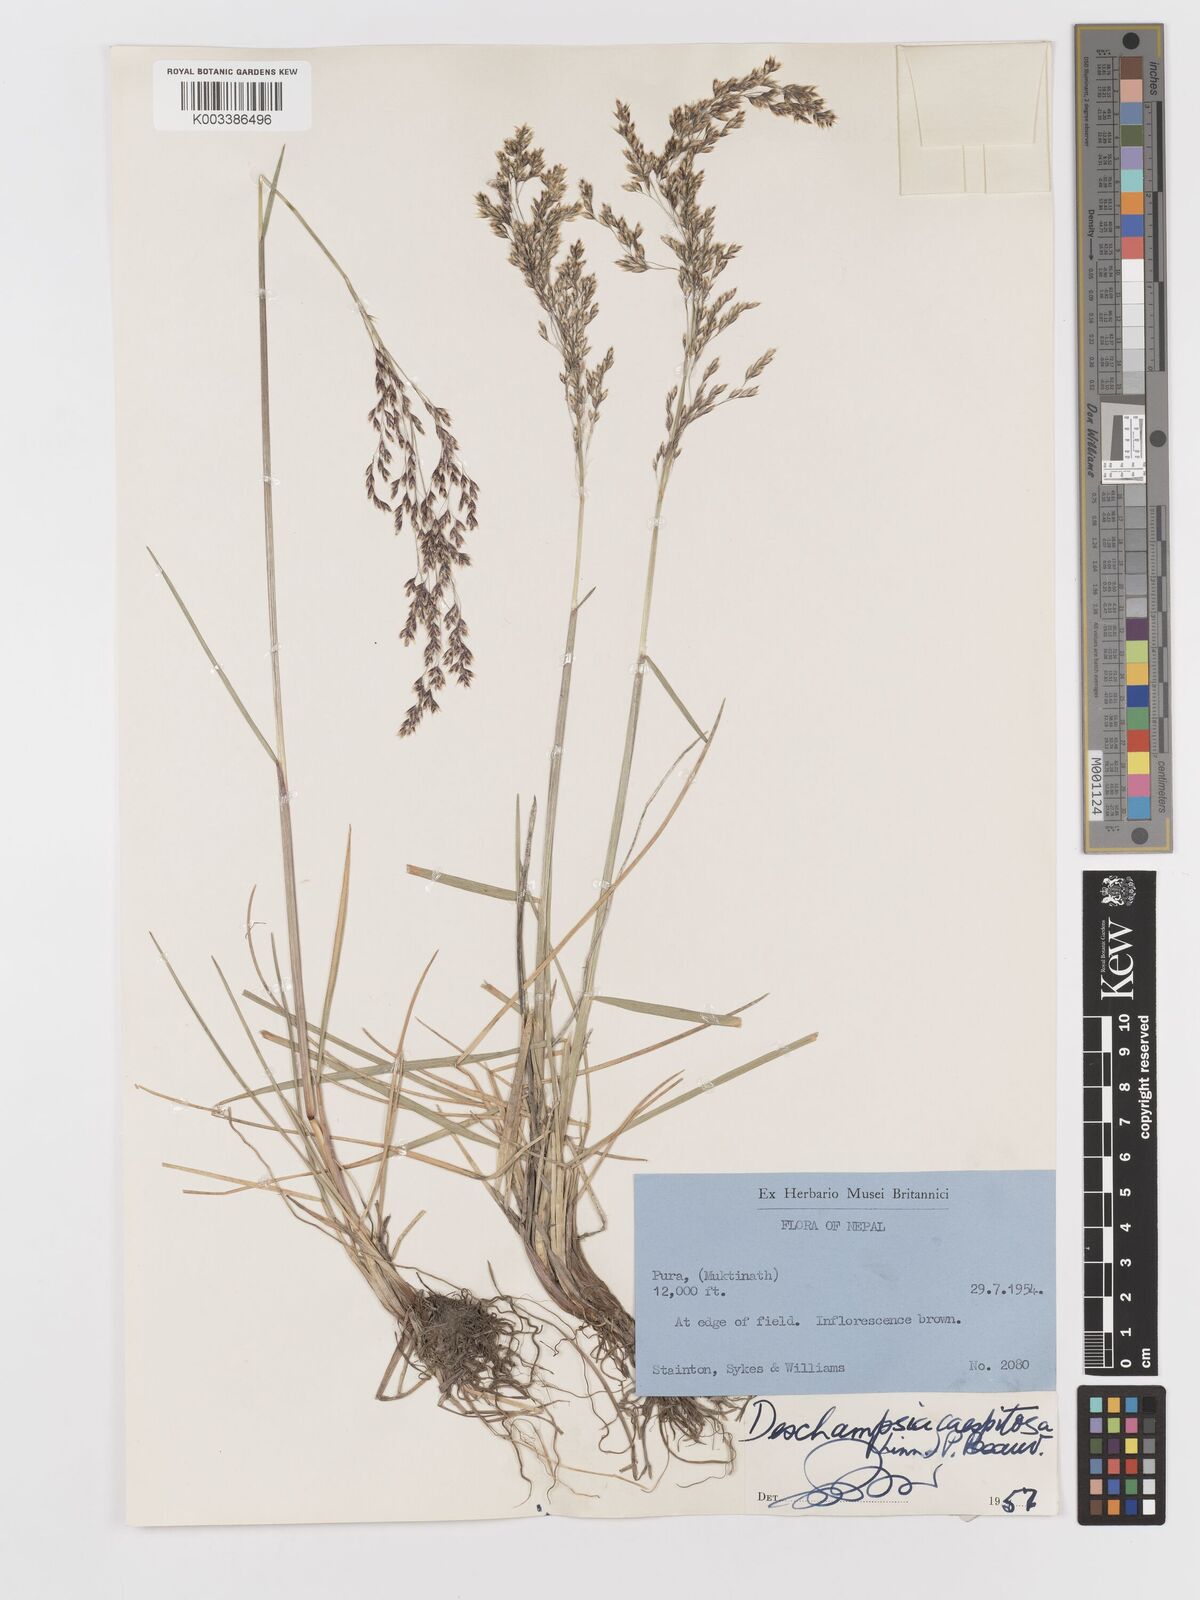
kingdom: Plantae
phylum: Tracheophyta
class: Liliopsida
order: Poales
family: Poaceae
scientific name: Poaceae
